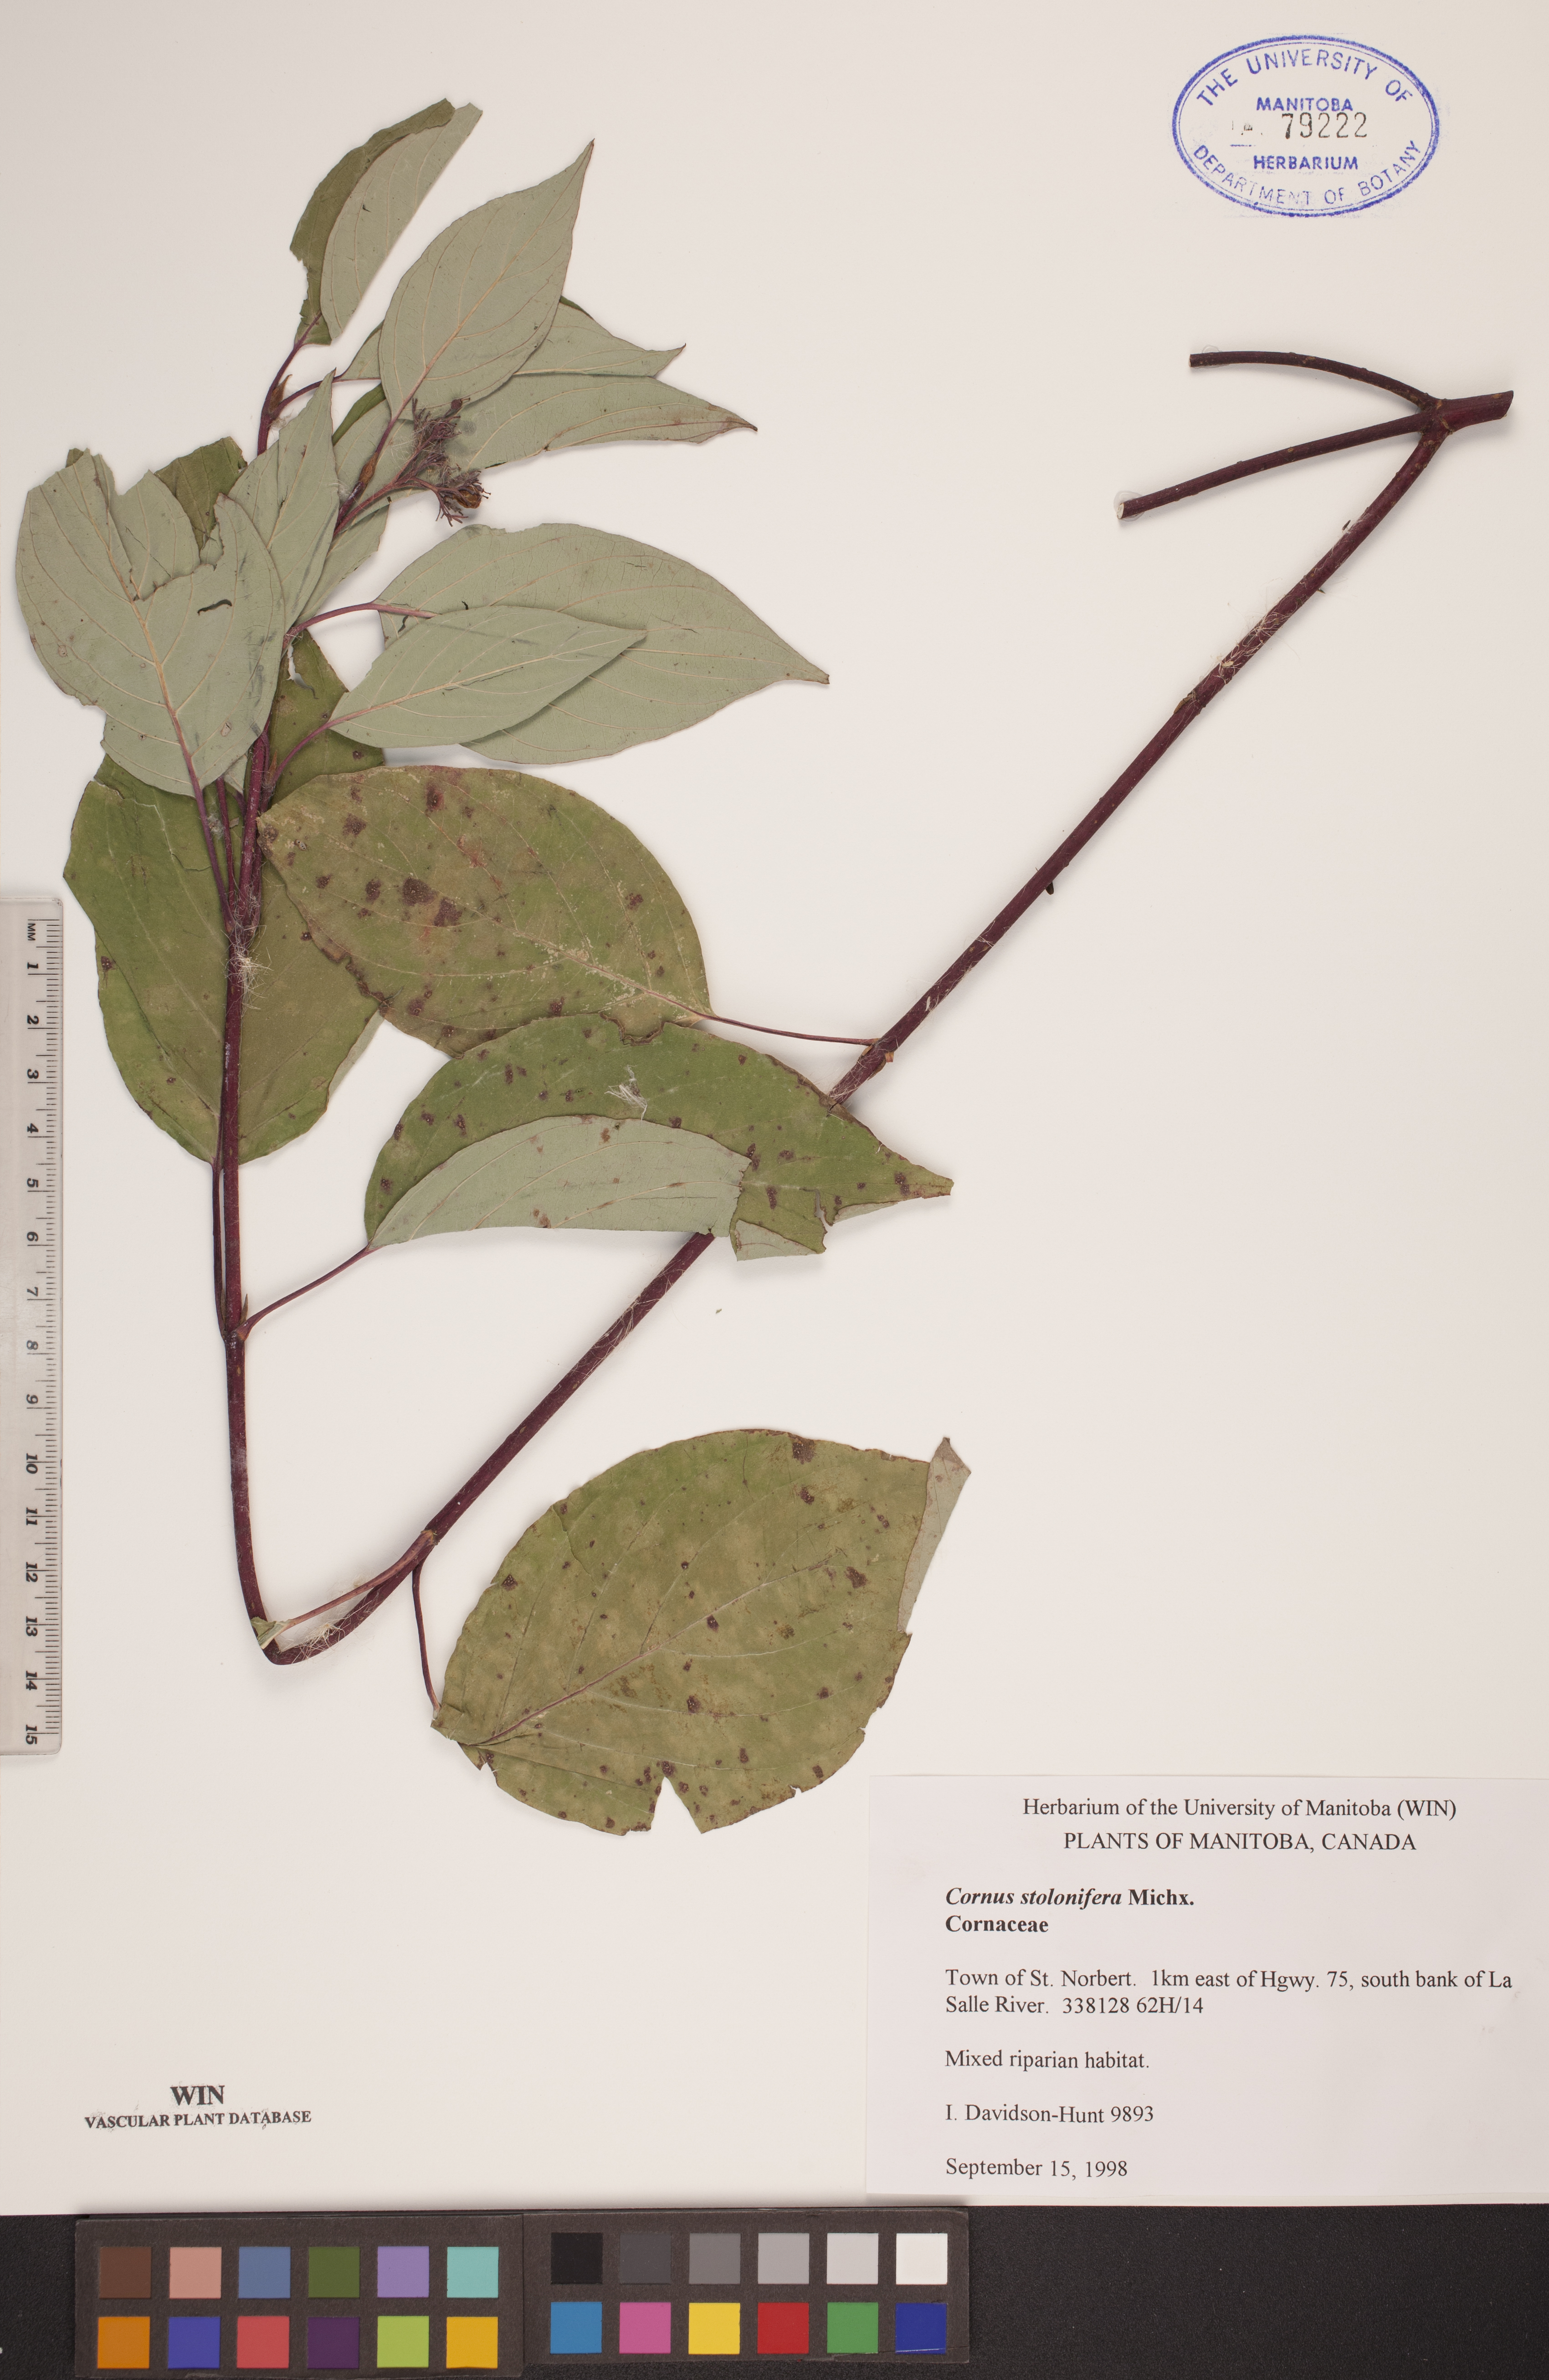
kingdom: Plantae
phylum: Tracheophyta
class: Magnoliopsida
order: Cornales
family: Cornaceae
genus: Cornus
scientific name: Cornus sericea
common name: Red-osier dogwood
